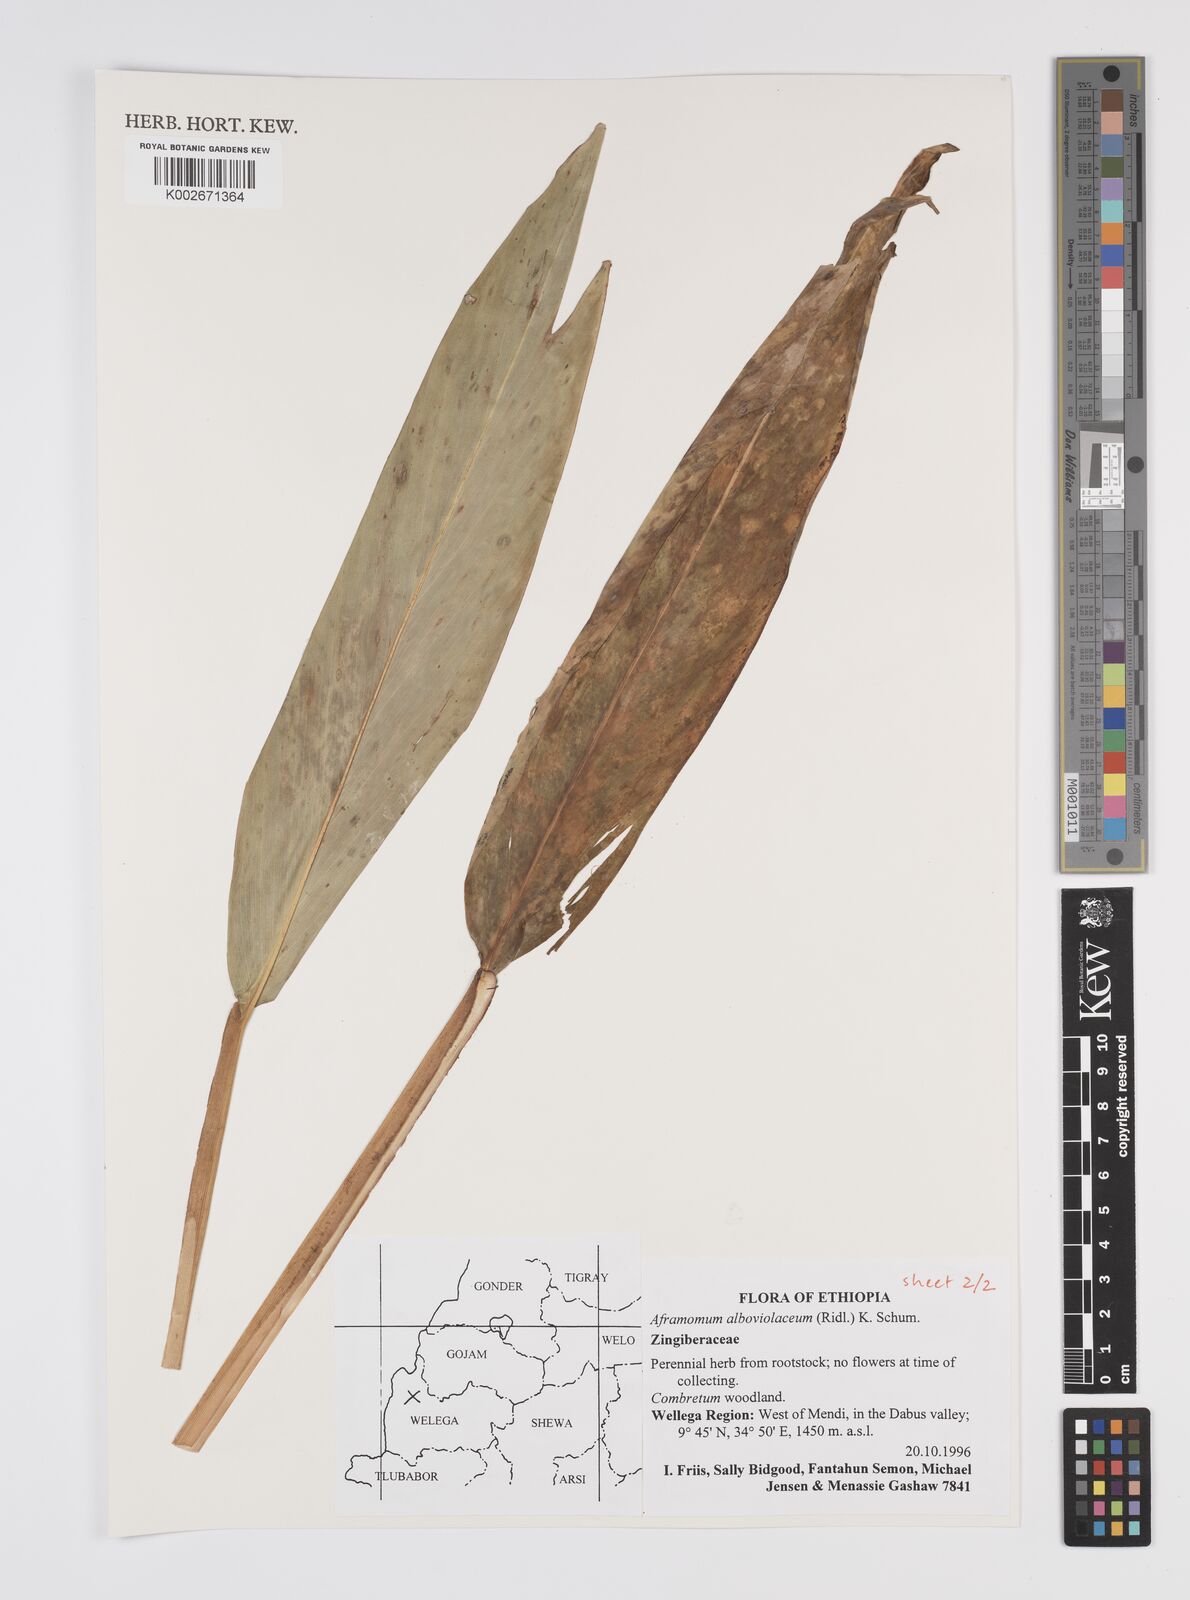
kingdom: Plantae
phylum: Tracheophyta
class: Liliopsida
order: Zingiberales
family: Zingiberaceae
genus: Aframomum
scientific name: Aframomum alboviolaceum
